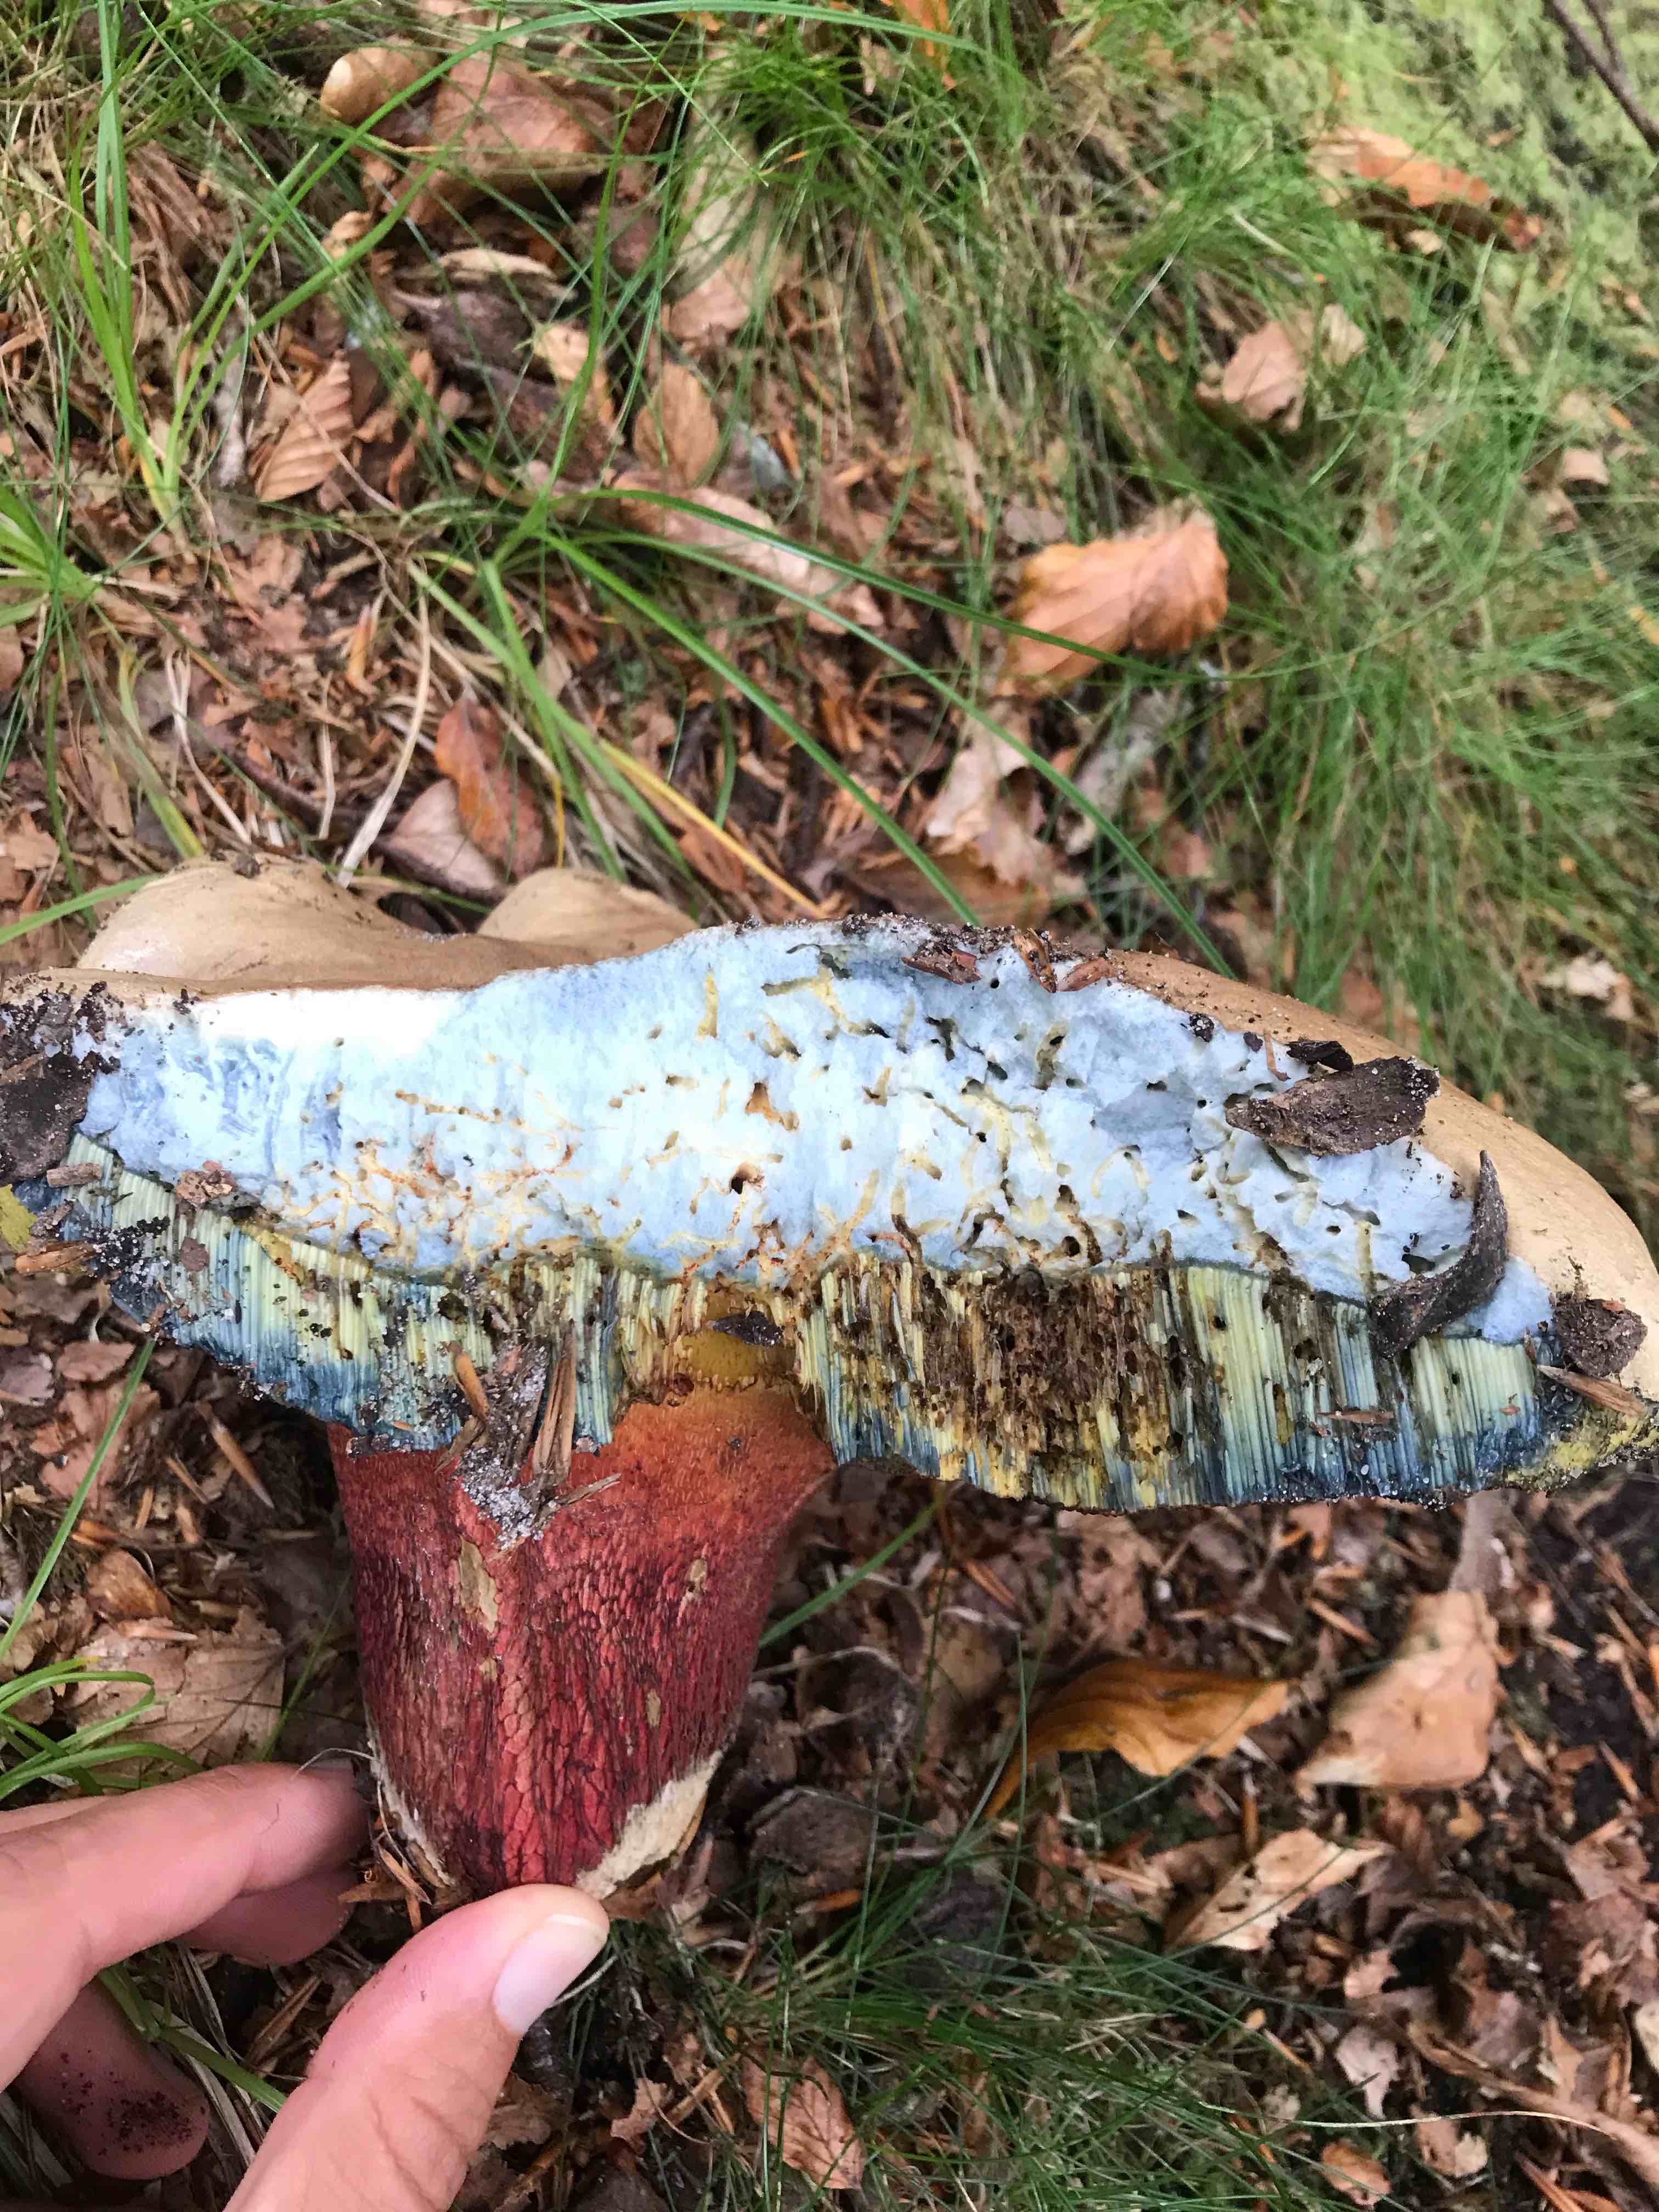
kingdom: Fungi
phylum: Basidiomycota
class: Agaricomycetes
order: Boletales
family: Boletaceae
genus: Caloboletus
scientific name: Caloboletus calopus
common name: skønfodet rørhat
